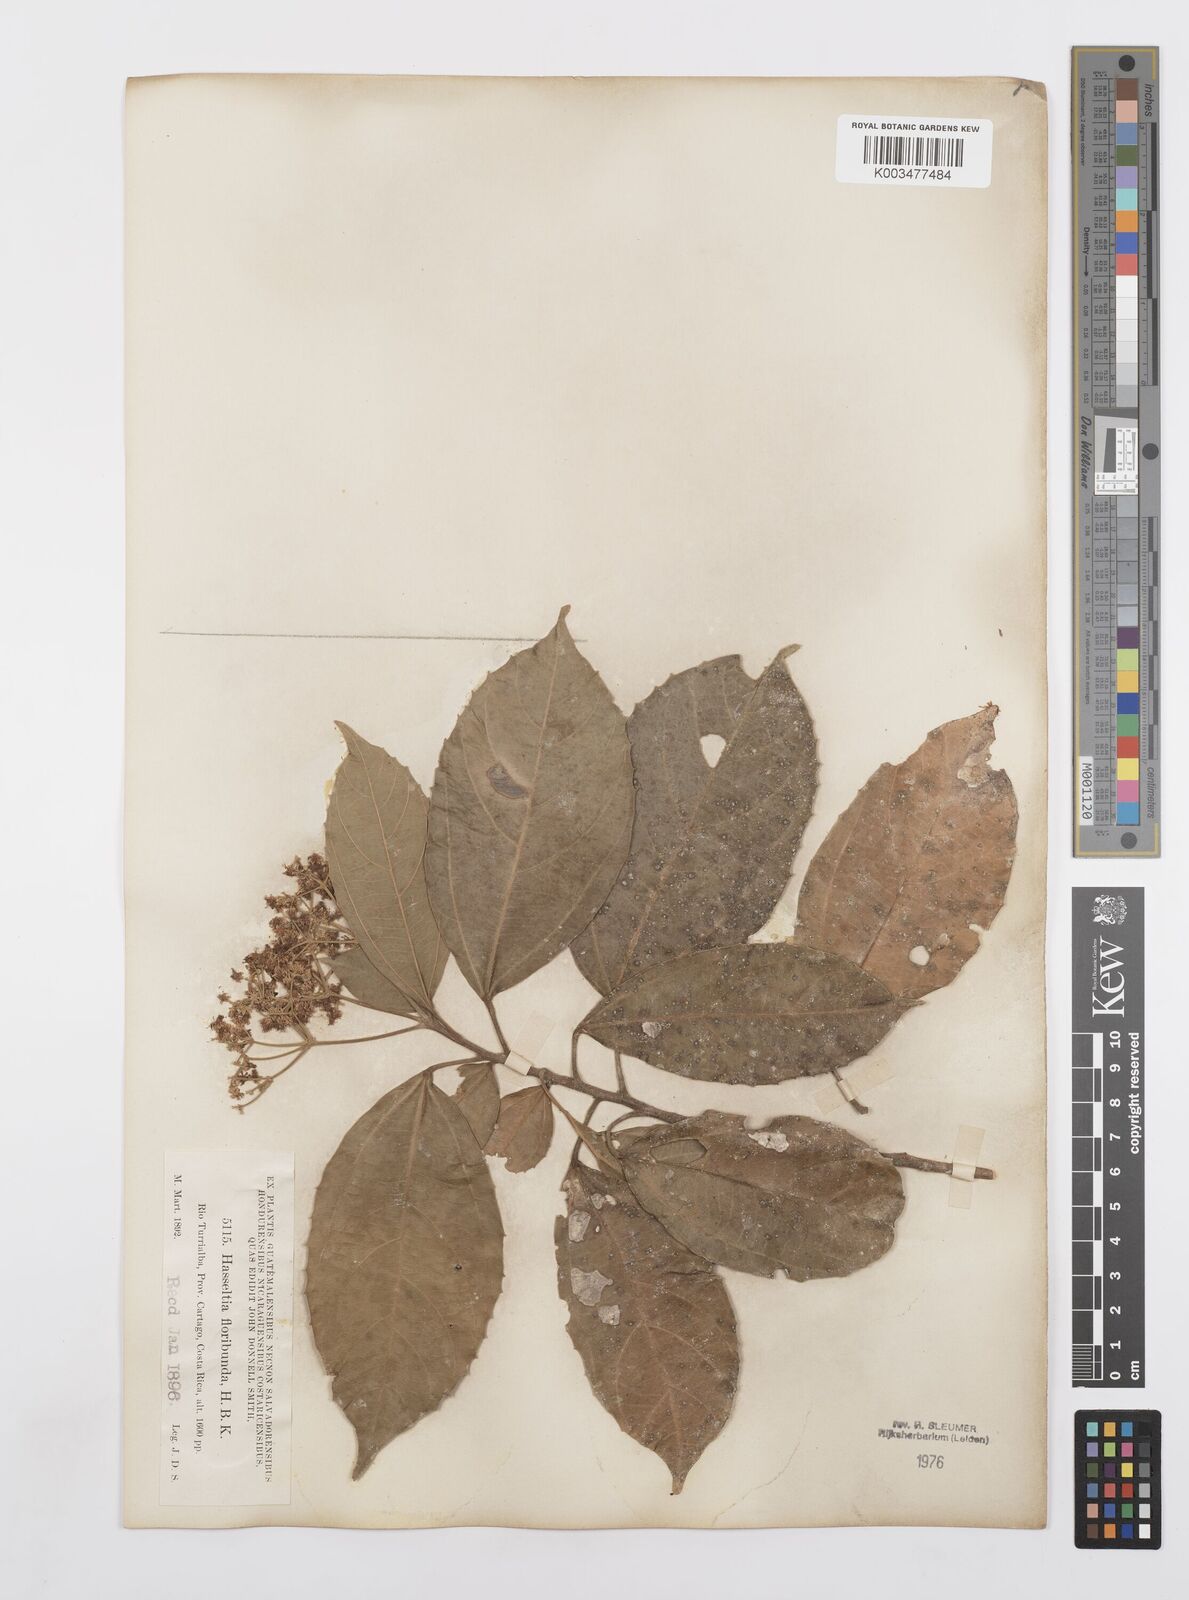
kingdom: Plantae
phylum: Tracheophyta
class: Magnoliopsida
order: Malpighiales
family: Salicaceae
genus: Hasseltia
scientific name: Hasseltia floribunda
